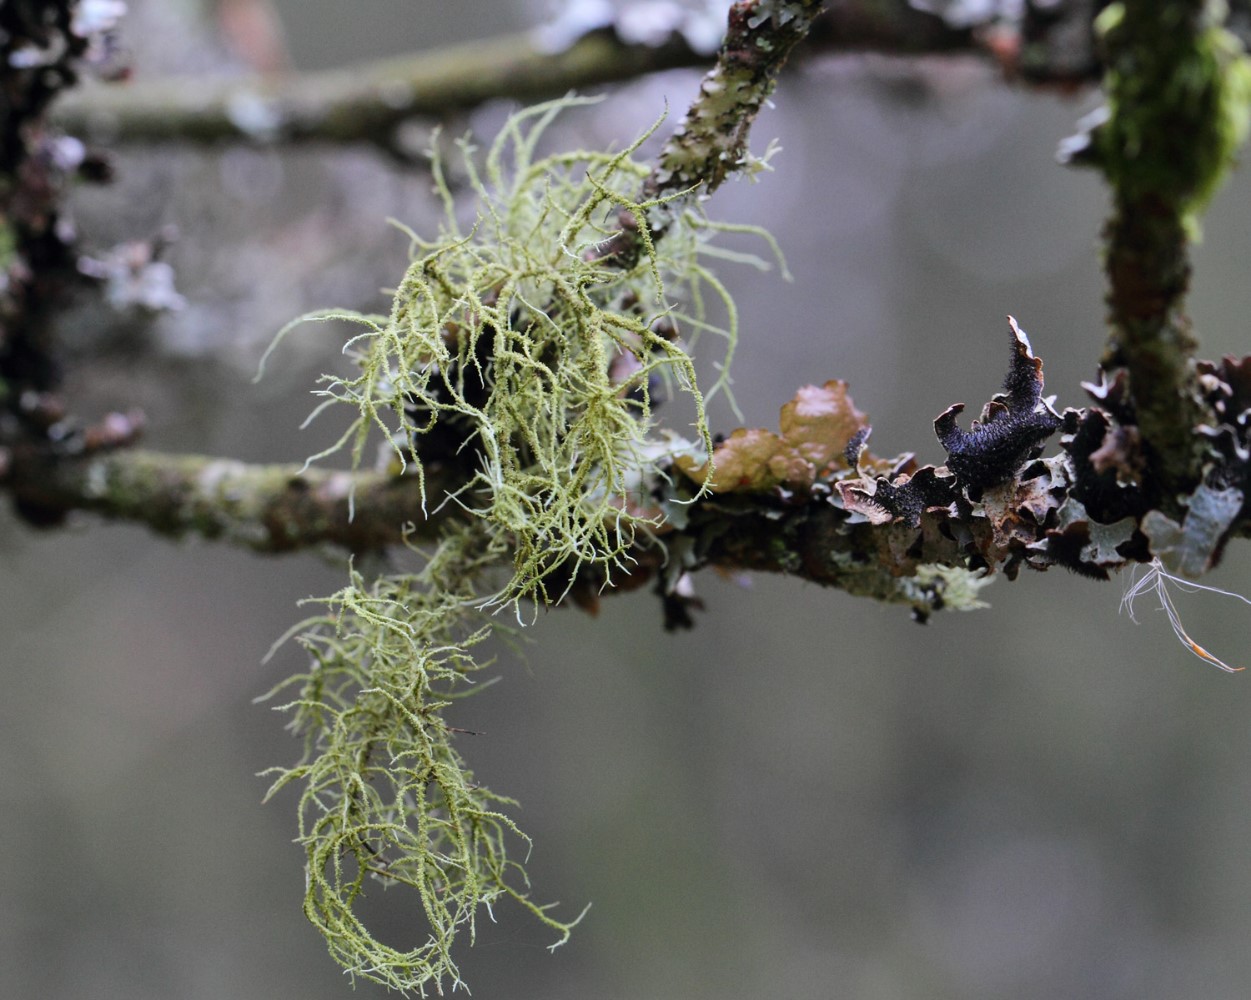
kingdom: Fungi
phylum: Ascomycota
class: Lecanoromycetes
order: Lecanorales
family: Parmeliaceae
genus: Usnea
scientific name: Usnea subfloridana
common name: busket skæglav
